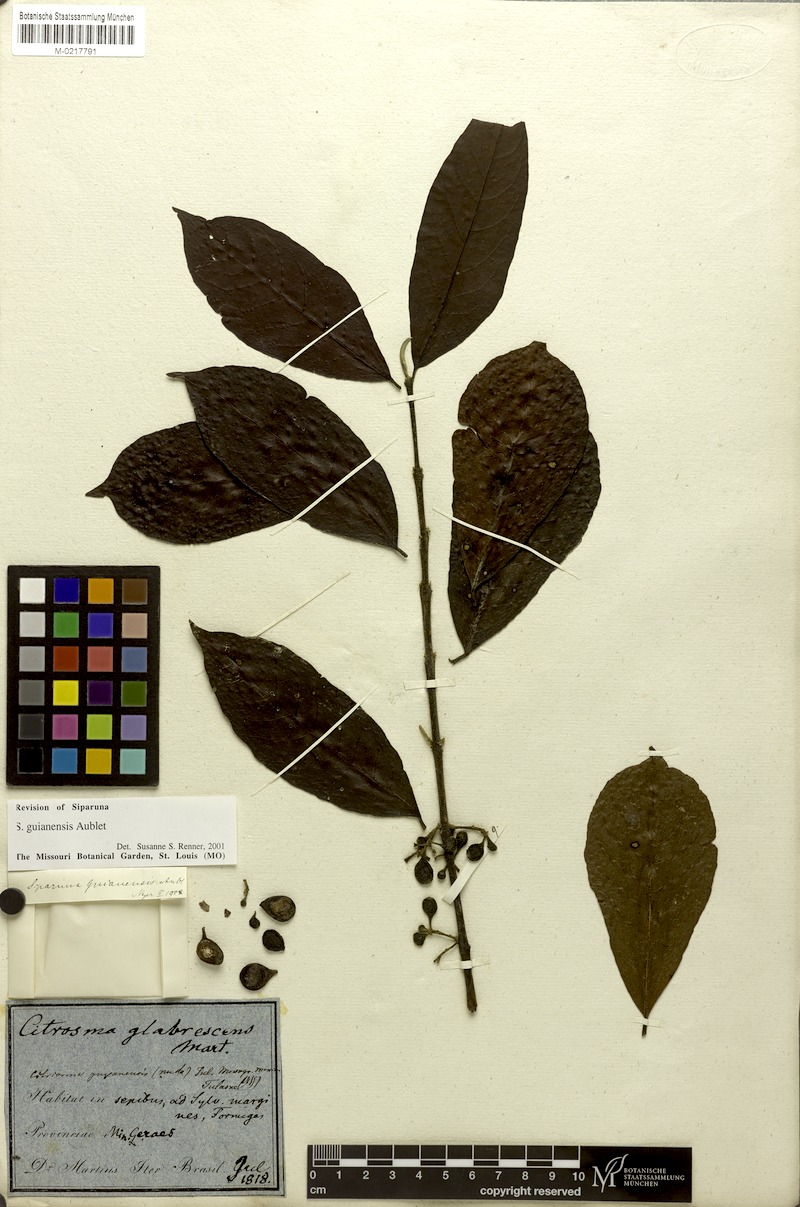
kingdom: Plantae
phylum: Tracheophyta
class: Magnoliopsida
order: Laurales
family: Siparunaceae
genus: Siparuna
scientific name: Siparuna guianensis
